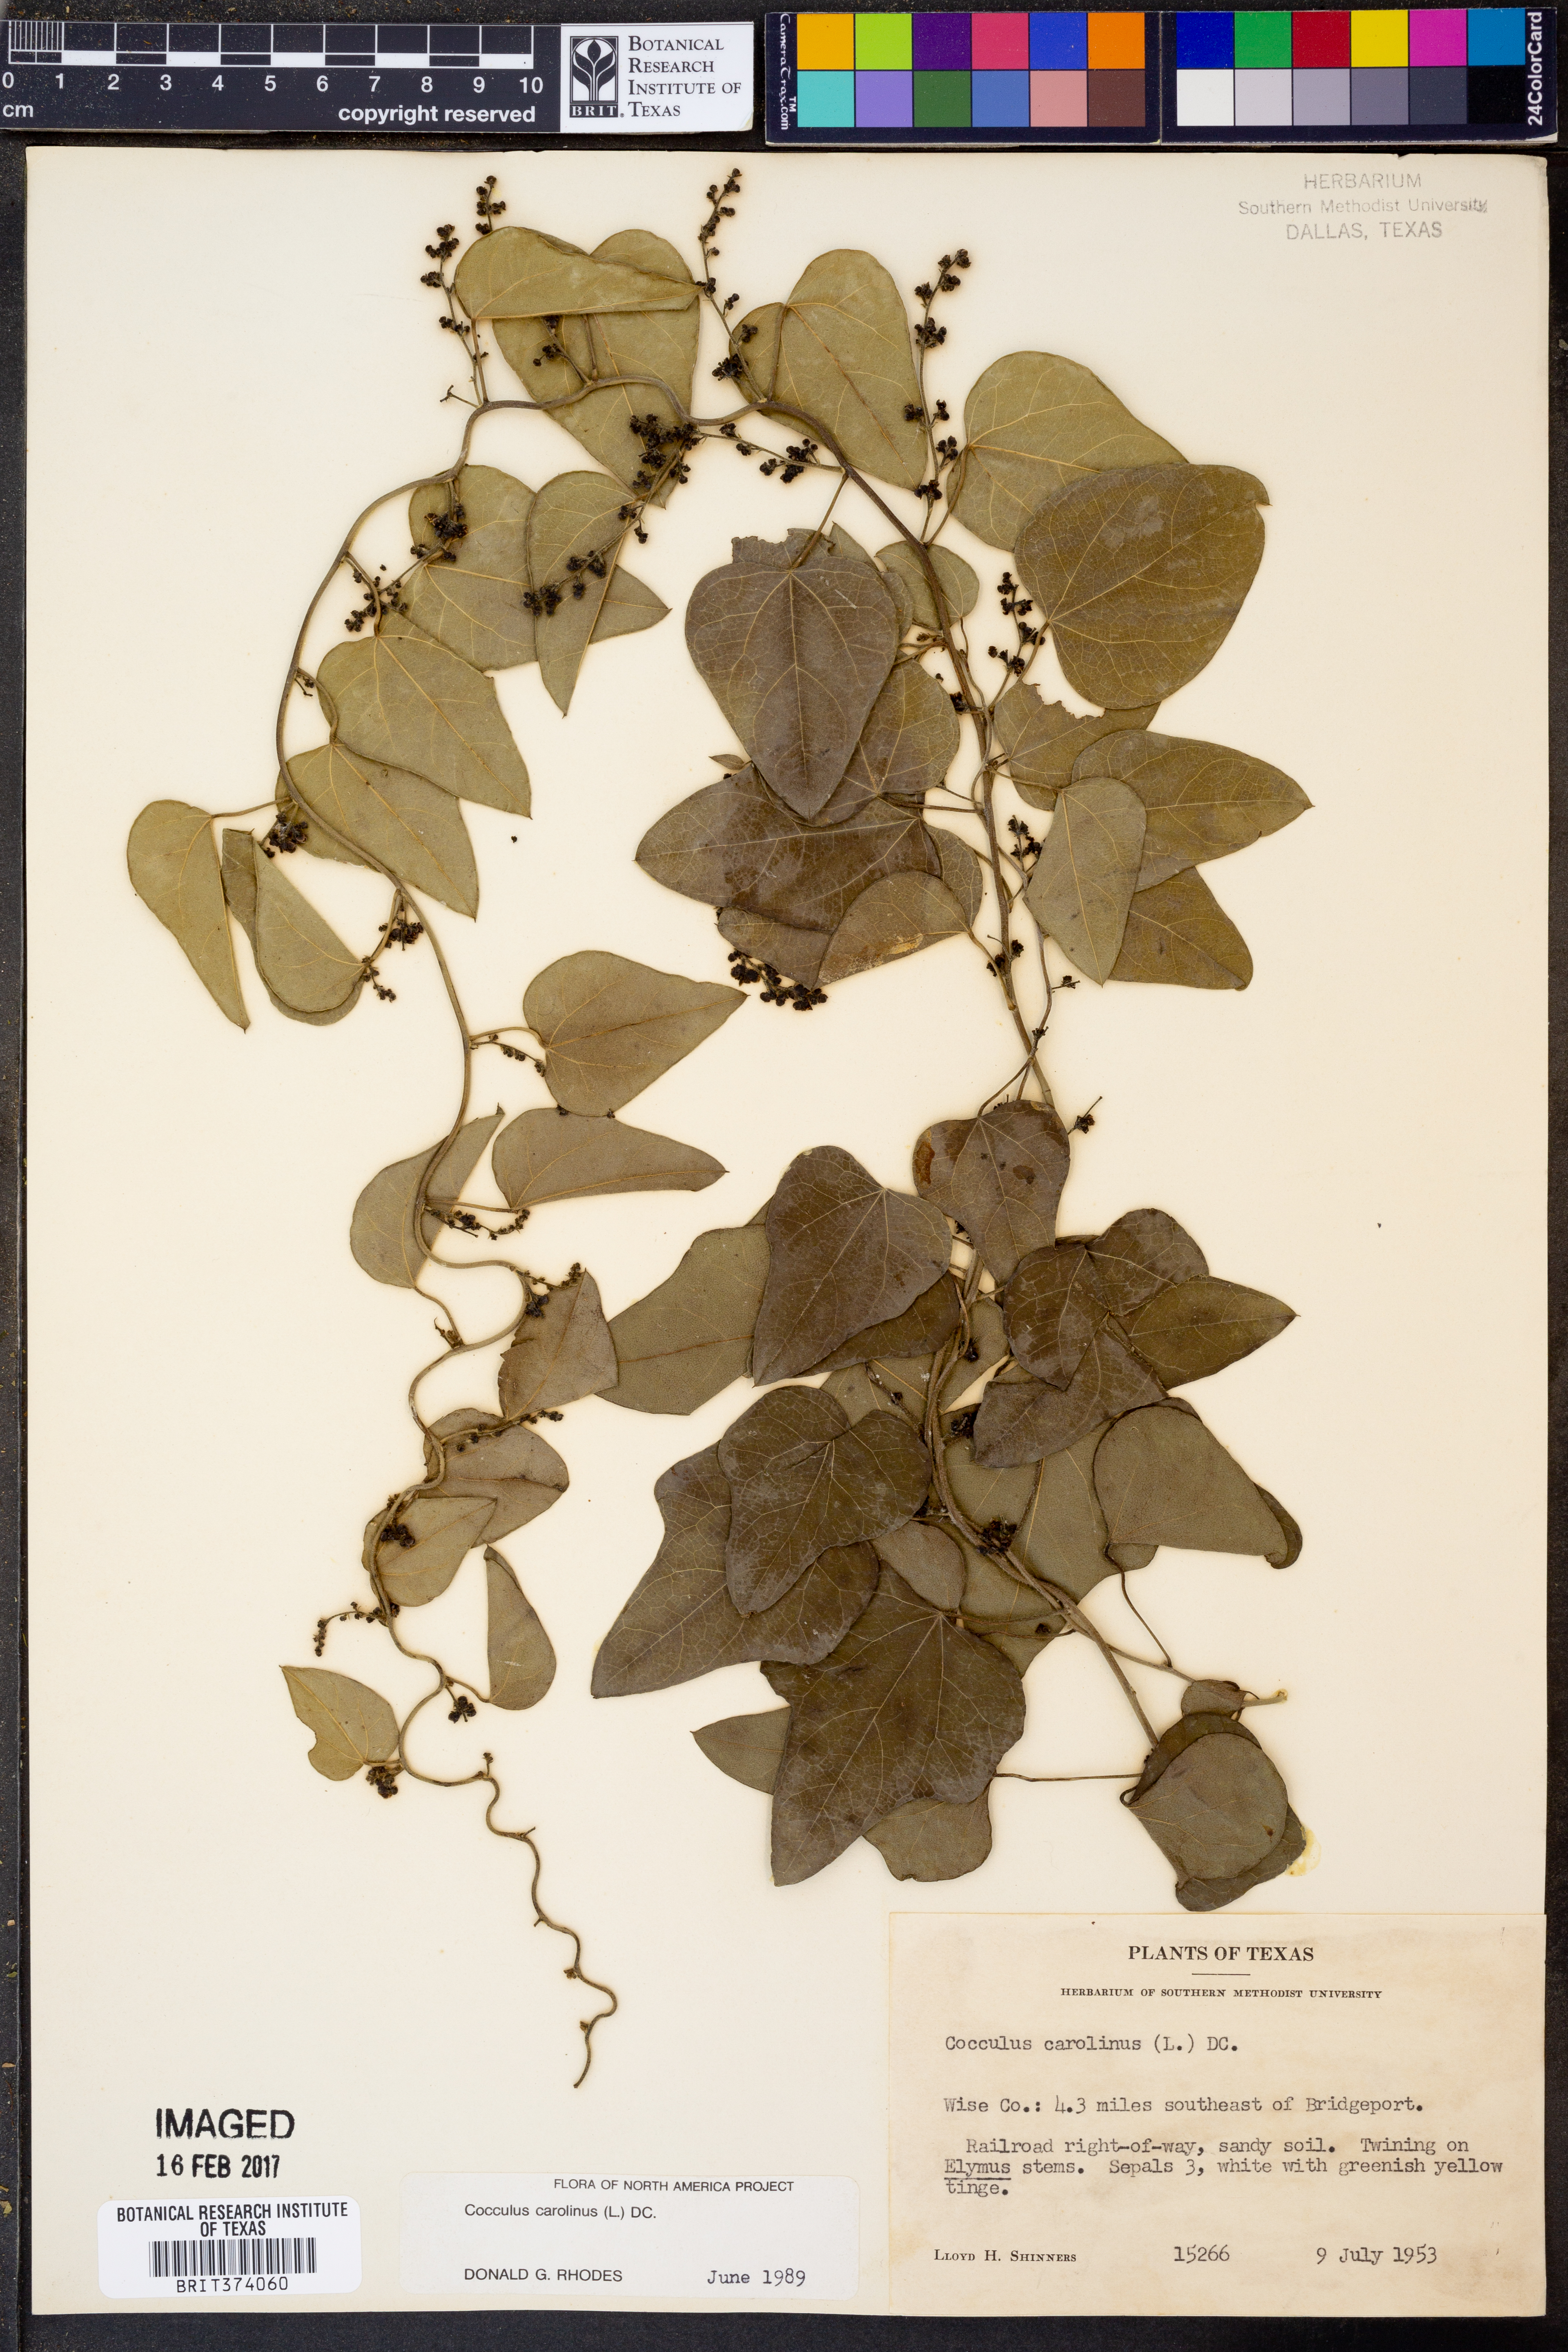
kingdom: Plantae
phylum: Tracheophyta
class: Magnoliopsida
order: Ranunculales
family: Menispermaceae
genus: Cocculus
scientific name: Cocculus carolinus
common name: Carolina moonseed
